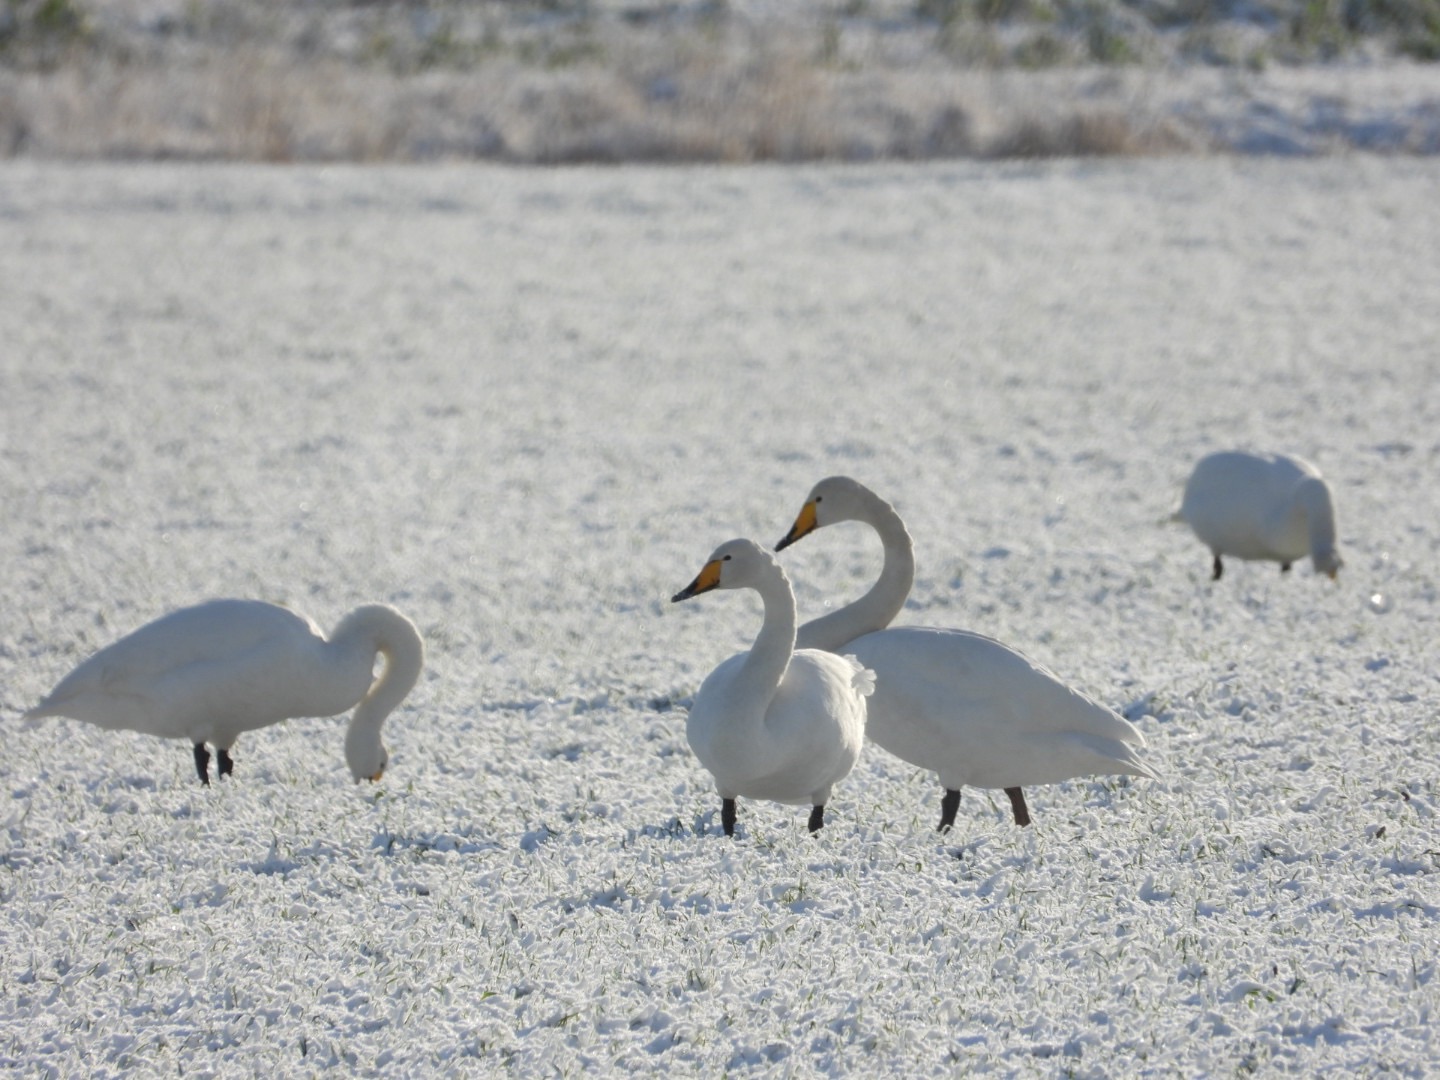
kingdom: Animalia
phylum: Chordata
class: Aves
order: Anseriformes
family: Anatidae
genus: Cygnus
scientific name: Cygnus cygnus
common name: Sangsvane
